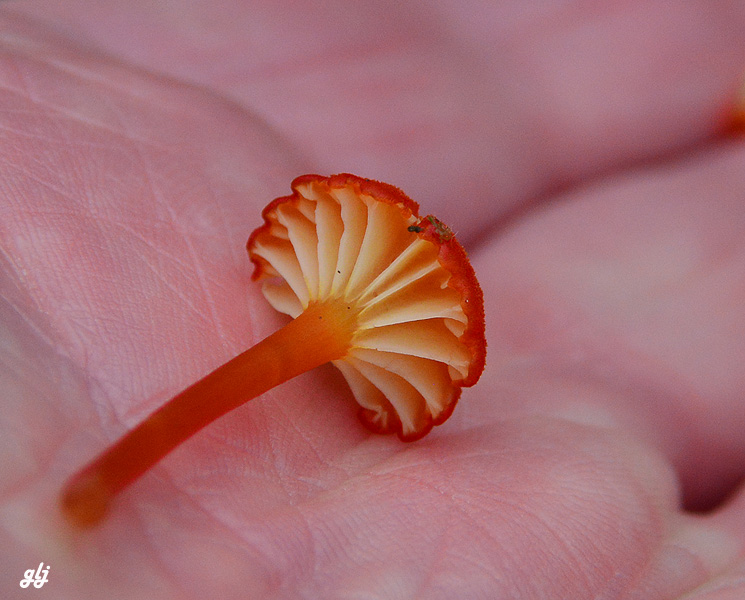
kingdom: Fungi
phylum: Basidiomycota
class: Agaricomycetes
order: Agaricales
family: Hygrophoraceae
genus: Hygrocybe
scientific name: Hygrocybe coccineocrenata
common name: tørvemos-vokshat
